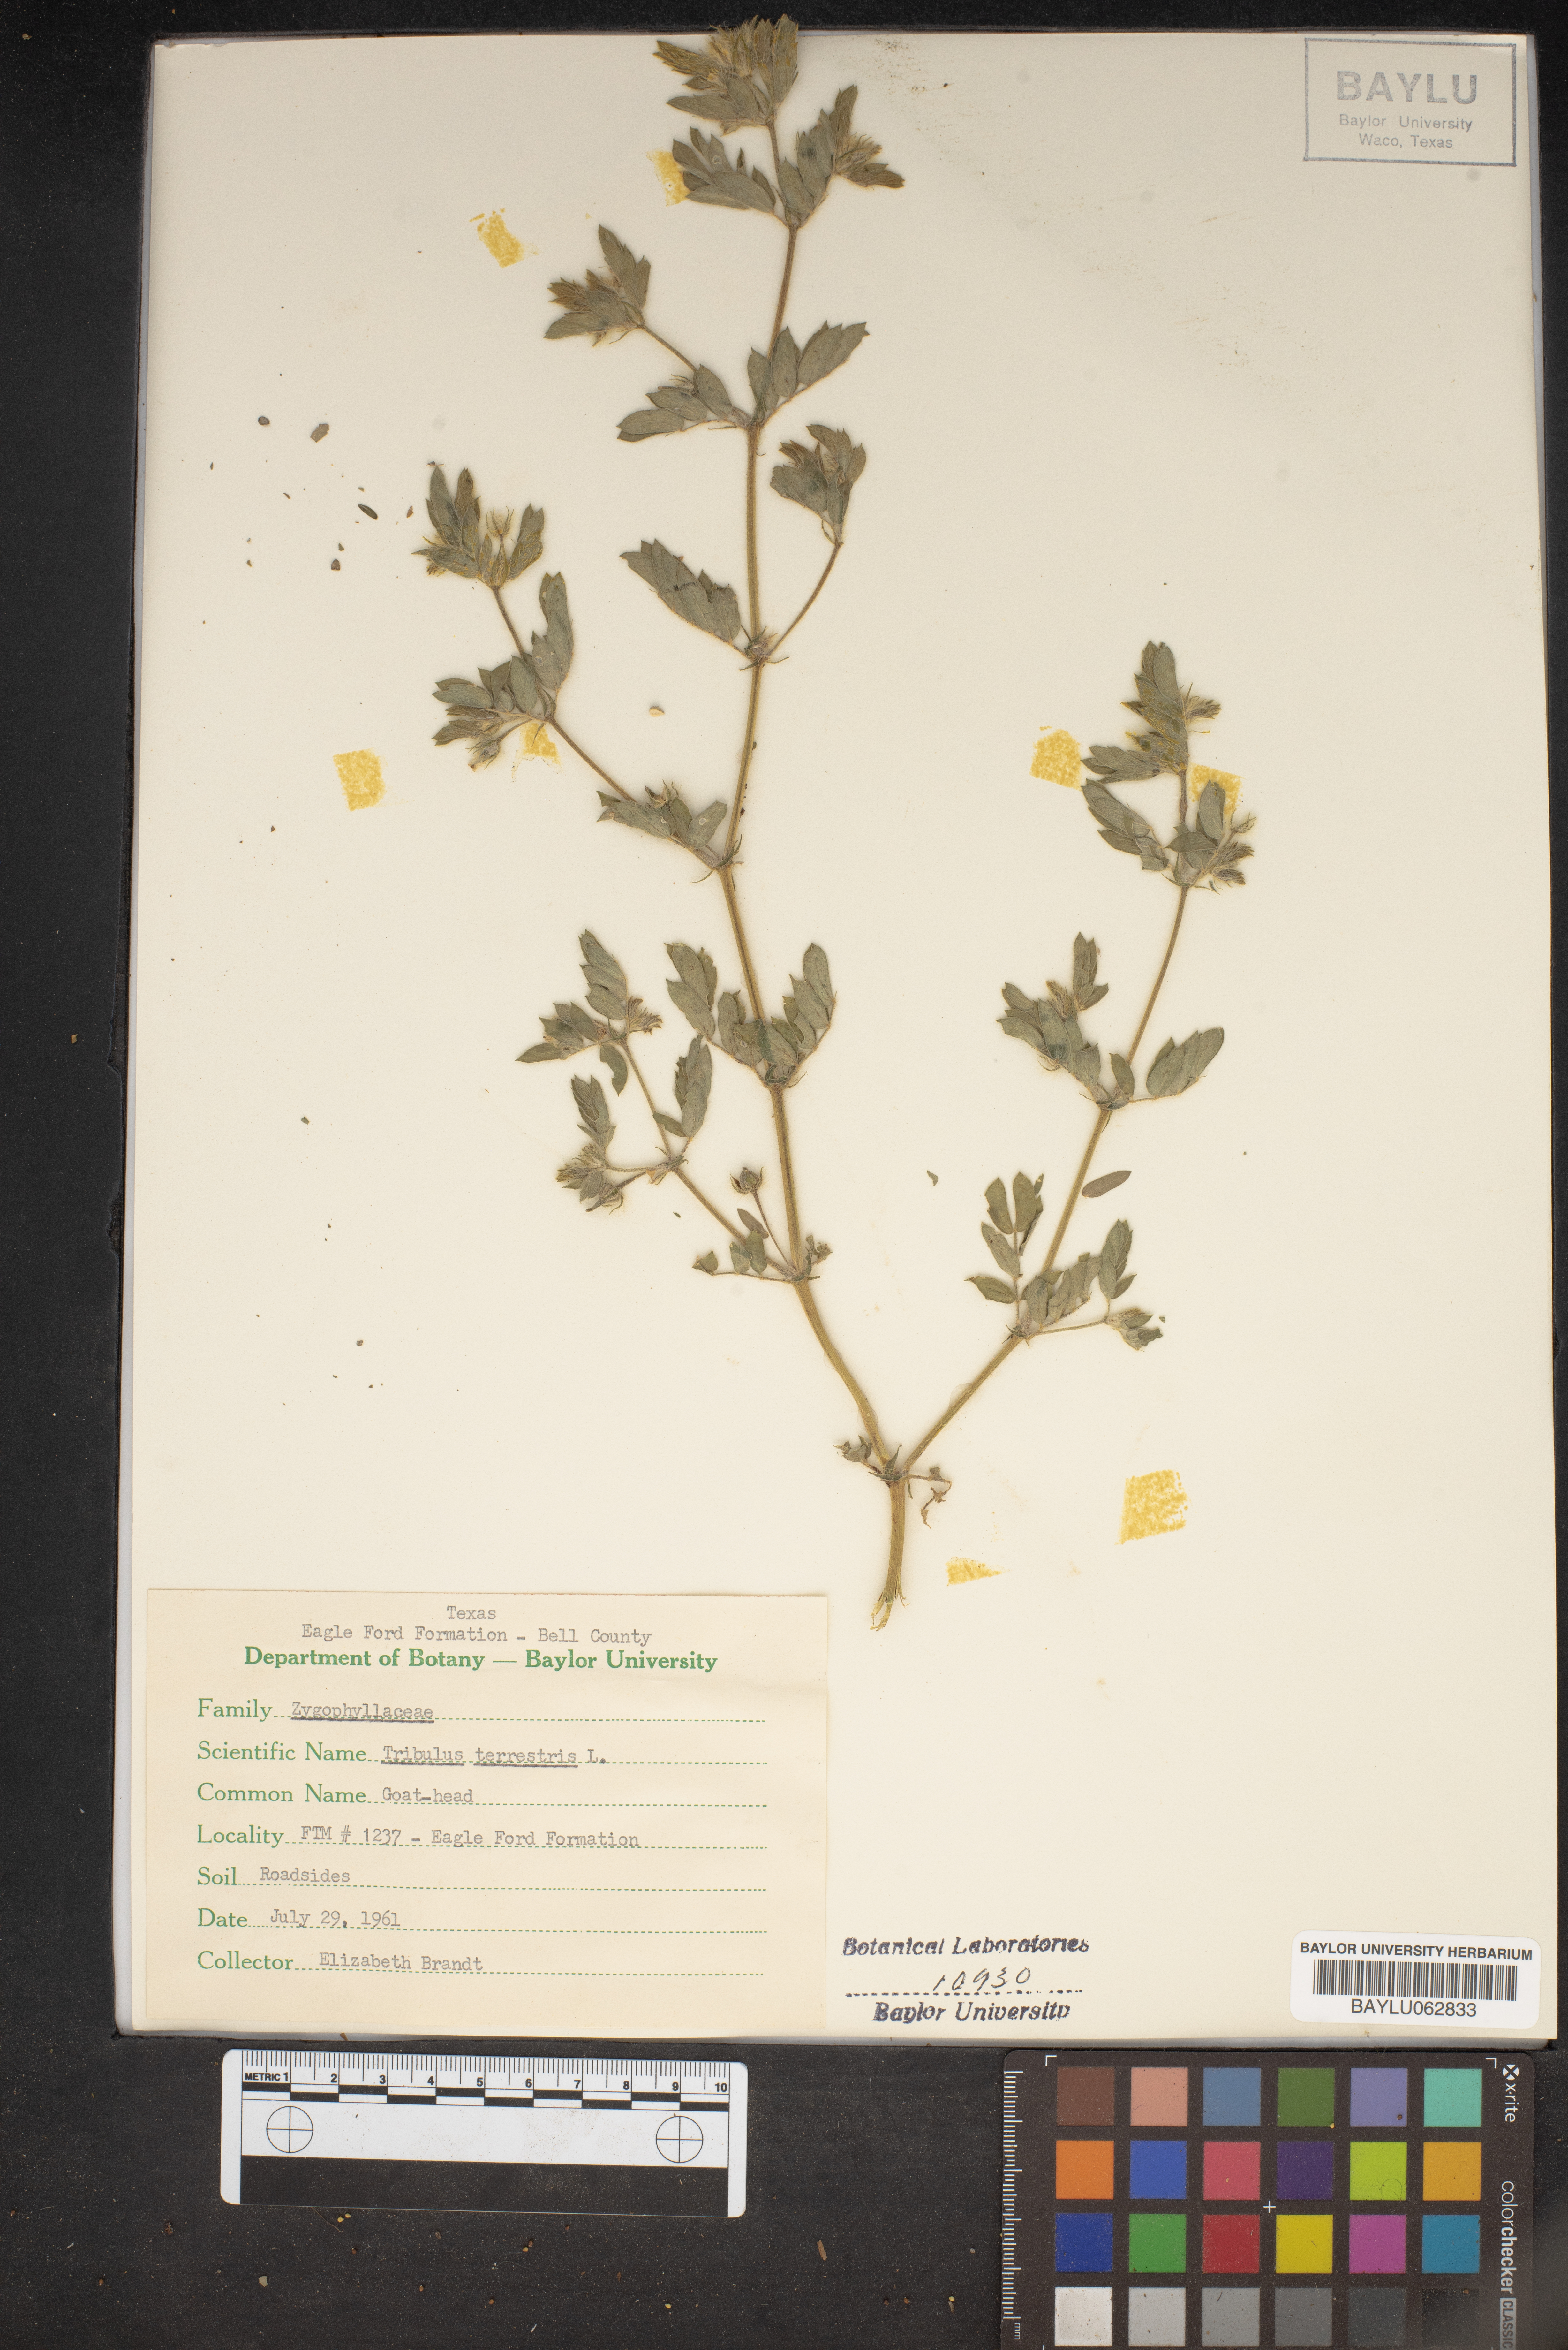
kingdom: Plantae
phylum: Tracheophyta
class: Magnoliopsida
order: Zygophyllales
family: Zygophyllaceae
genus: Tribulus
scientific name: Tribulus terrestris
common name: Puncturevine
